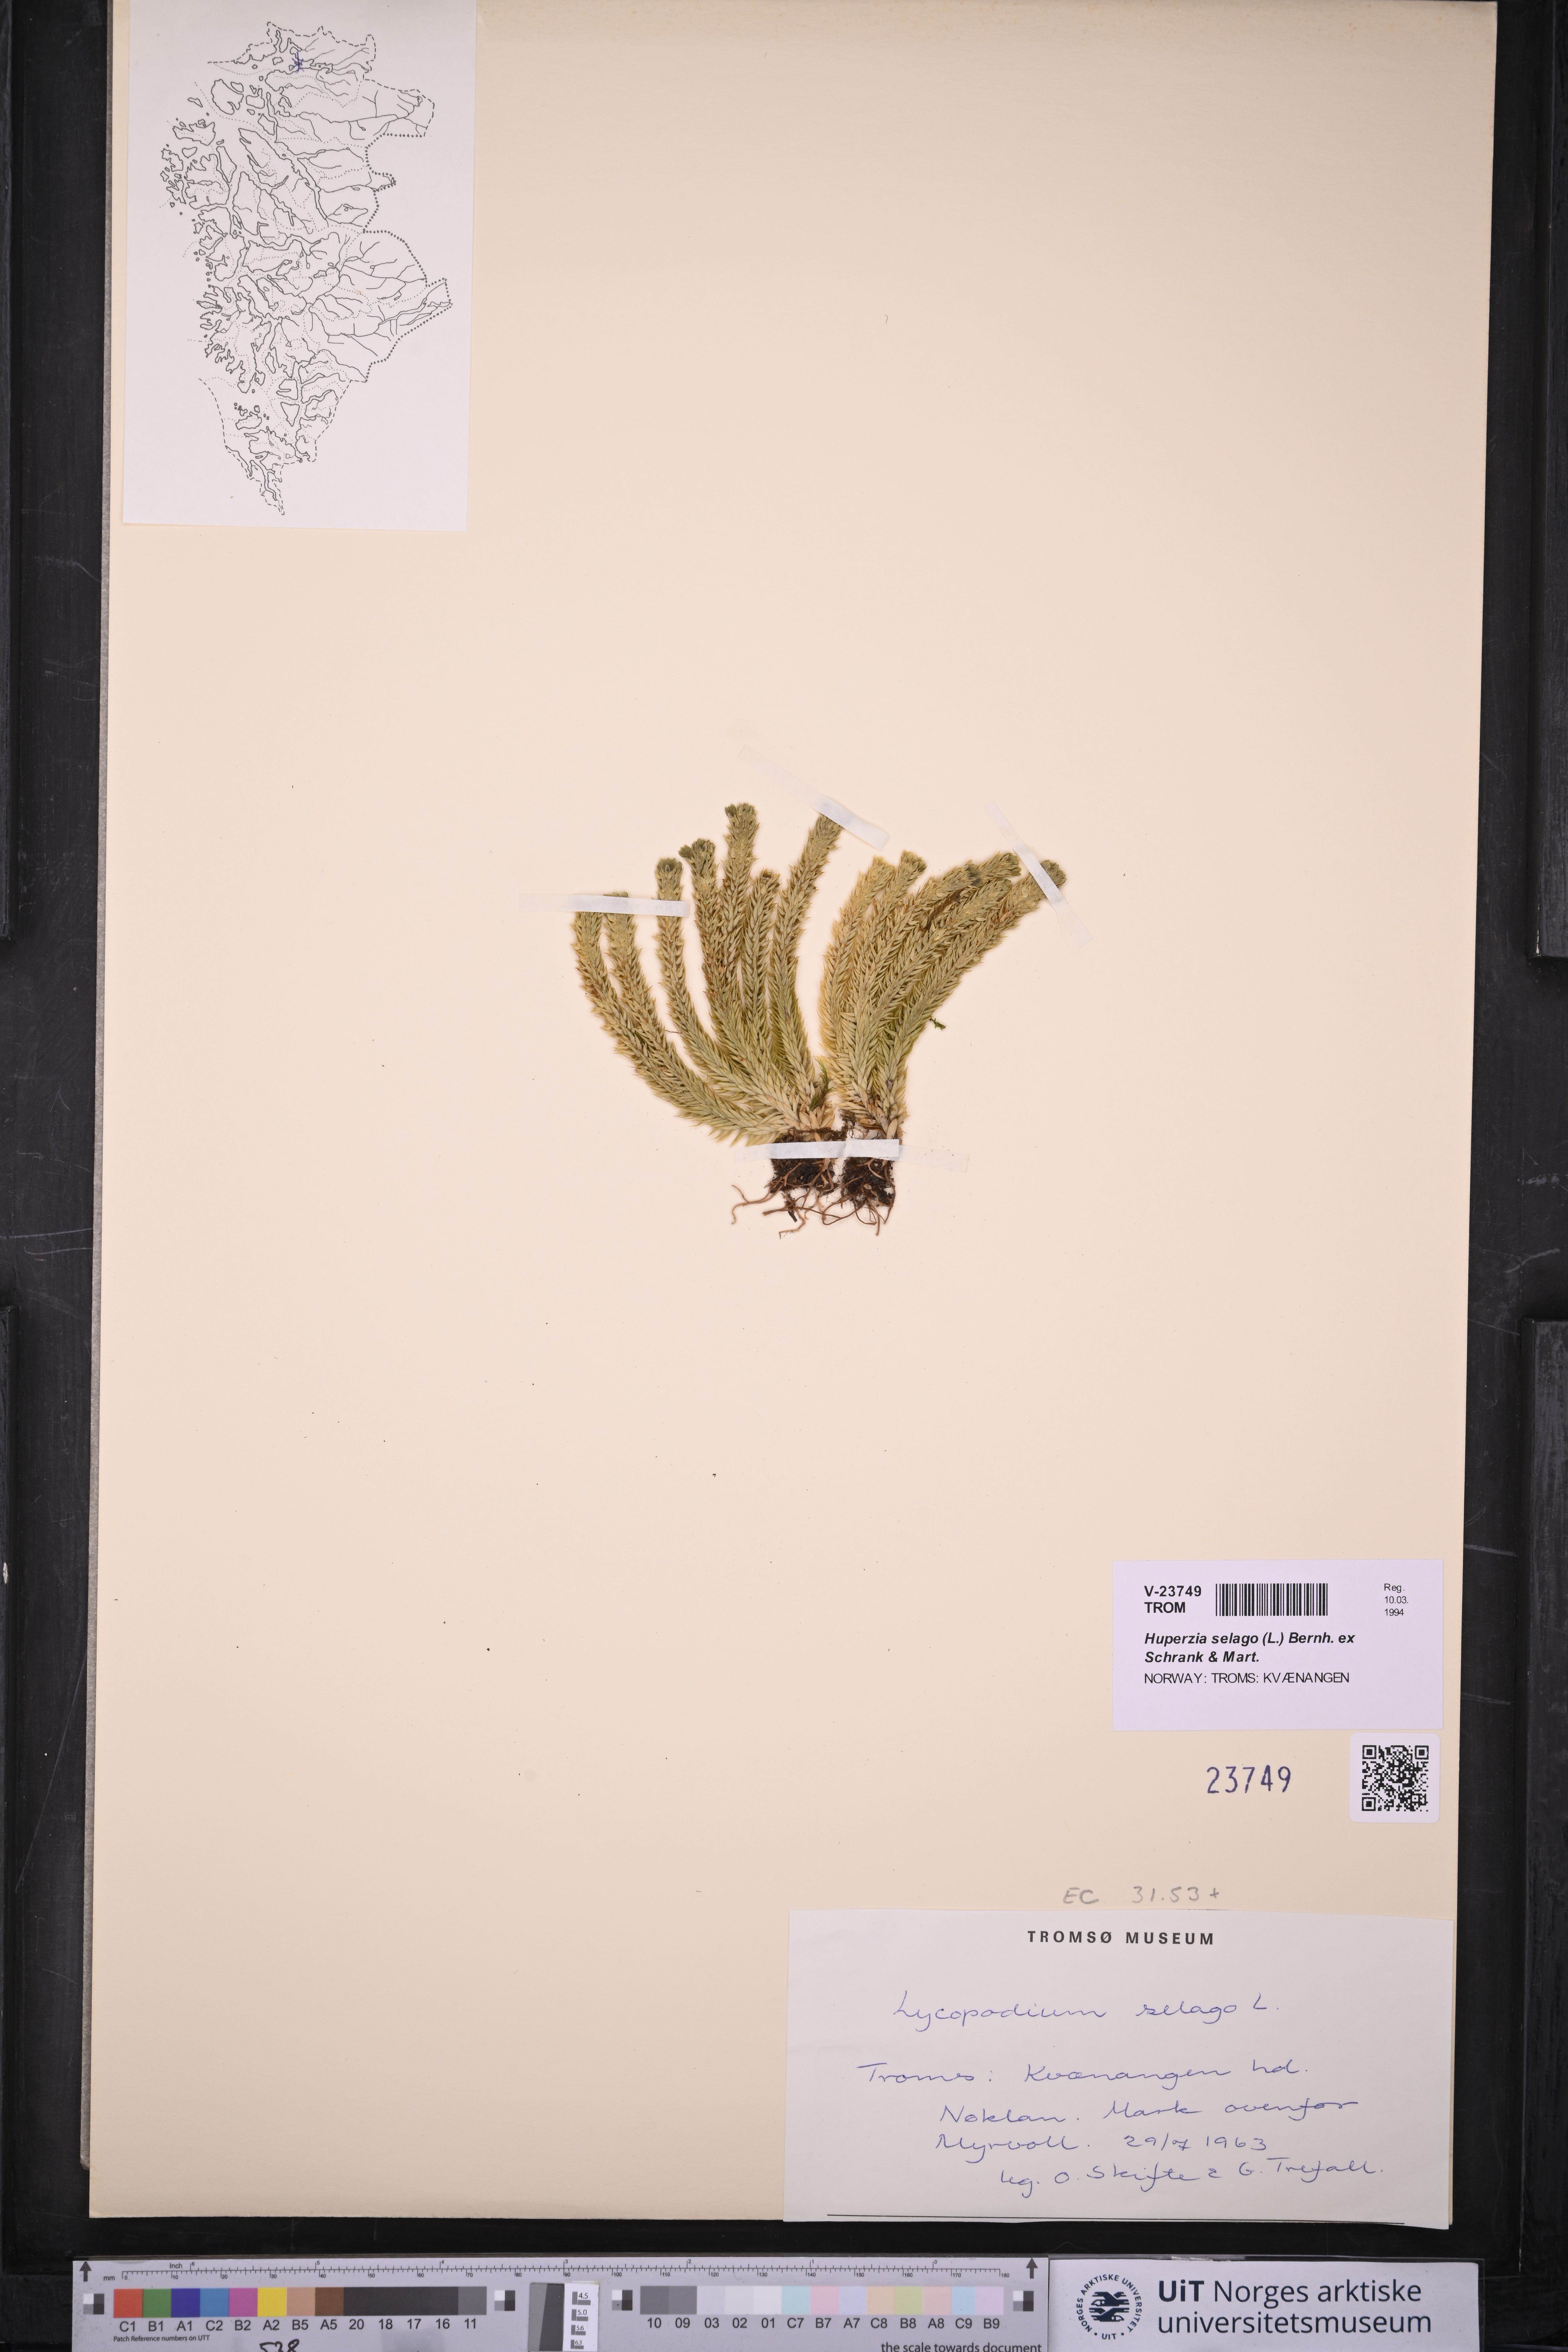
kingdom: Plantae
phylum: Tracheophyta
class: Lycopodiopsida
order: Lycopodiales
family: Lycopodiaceae
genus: Huperzia
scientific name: Huperzia selago
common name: Northern firmoss
